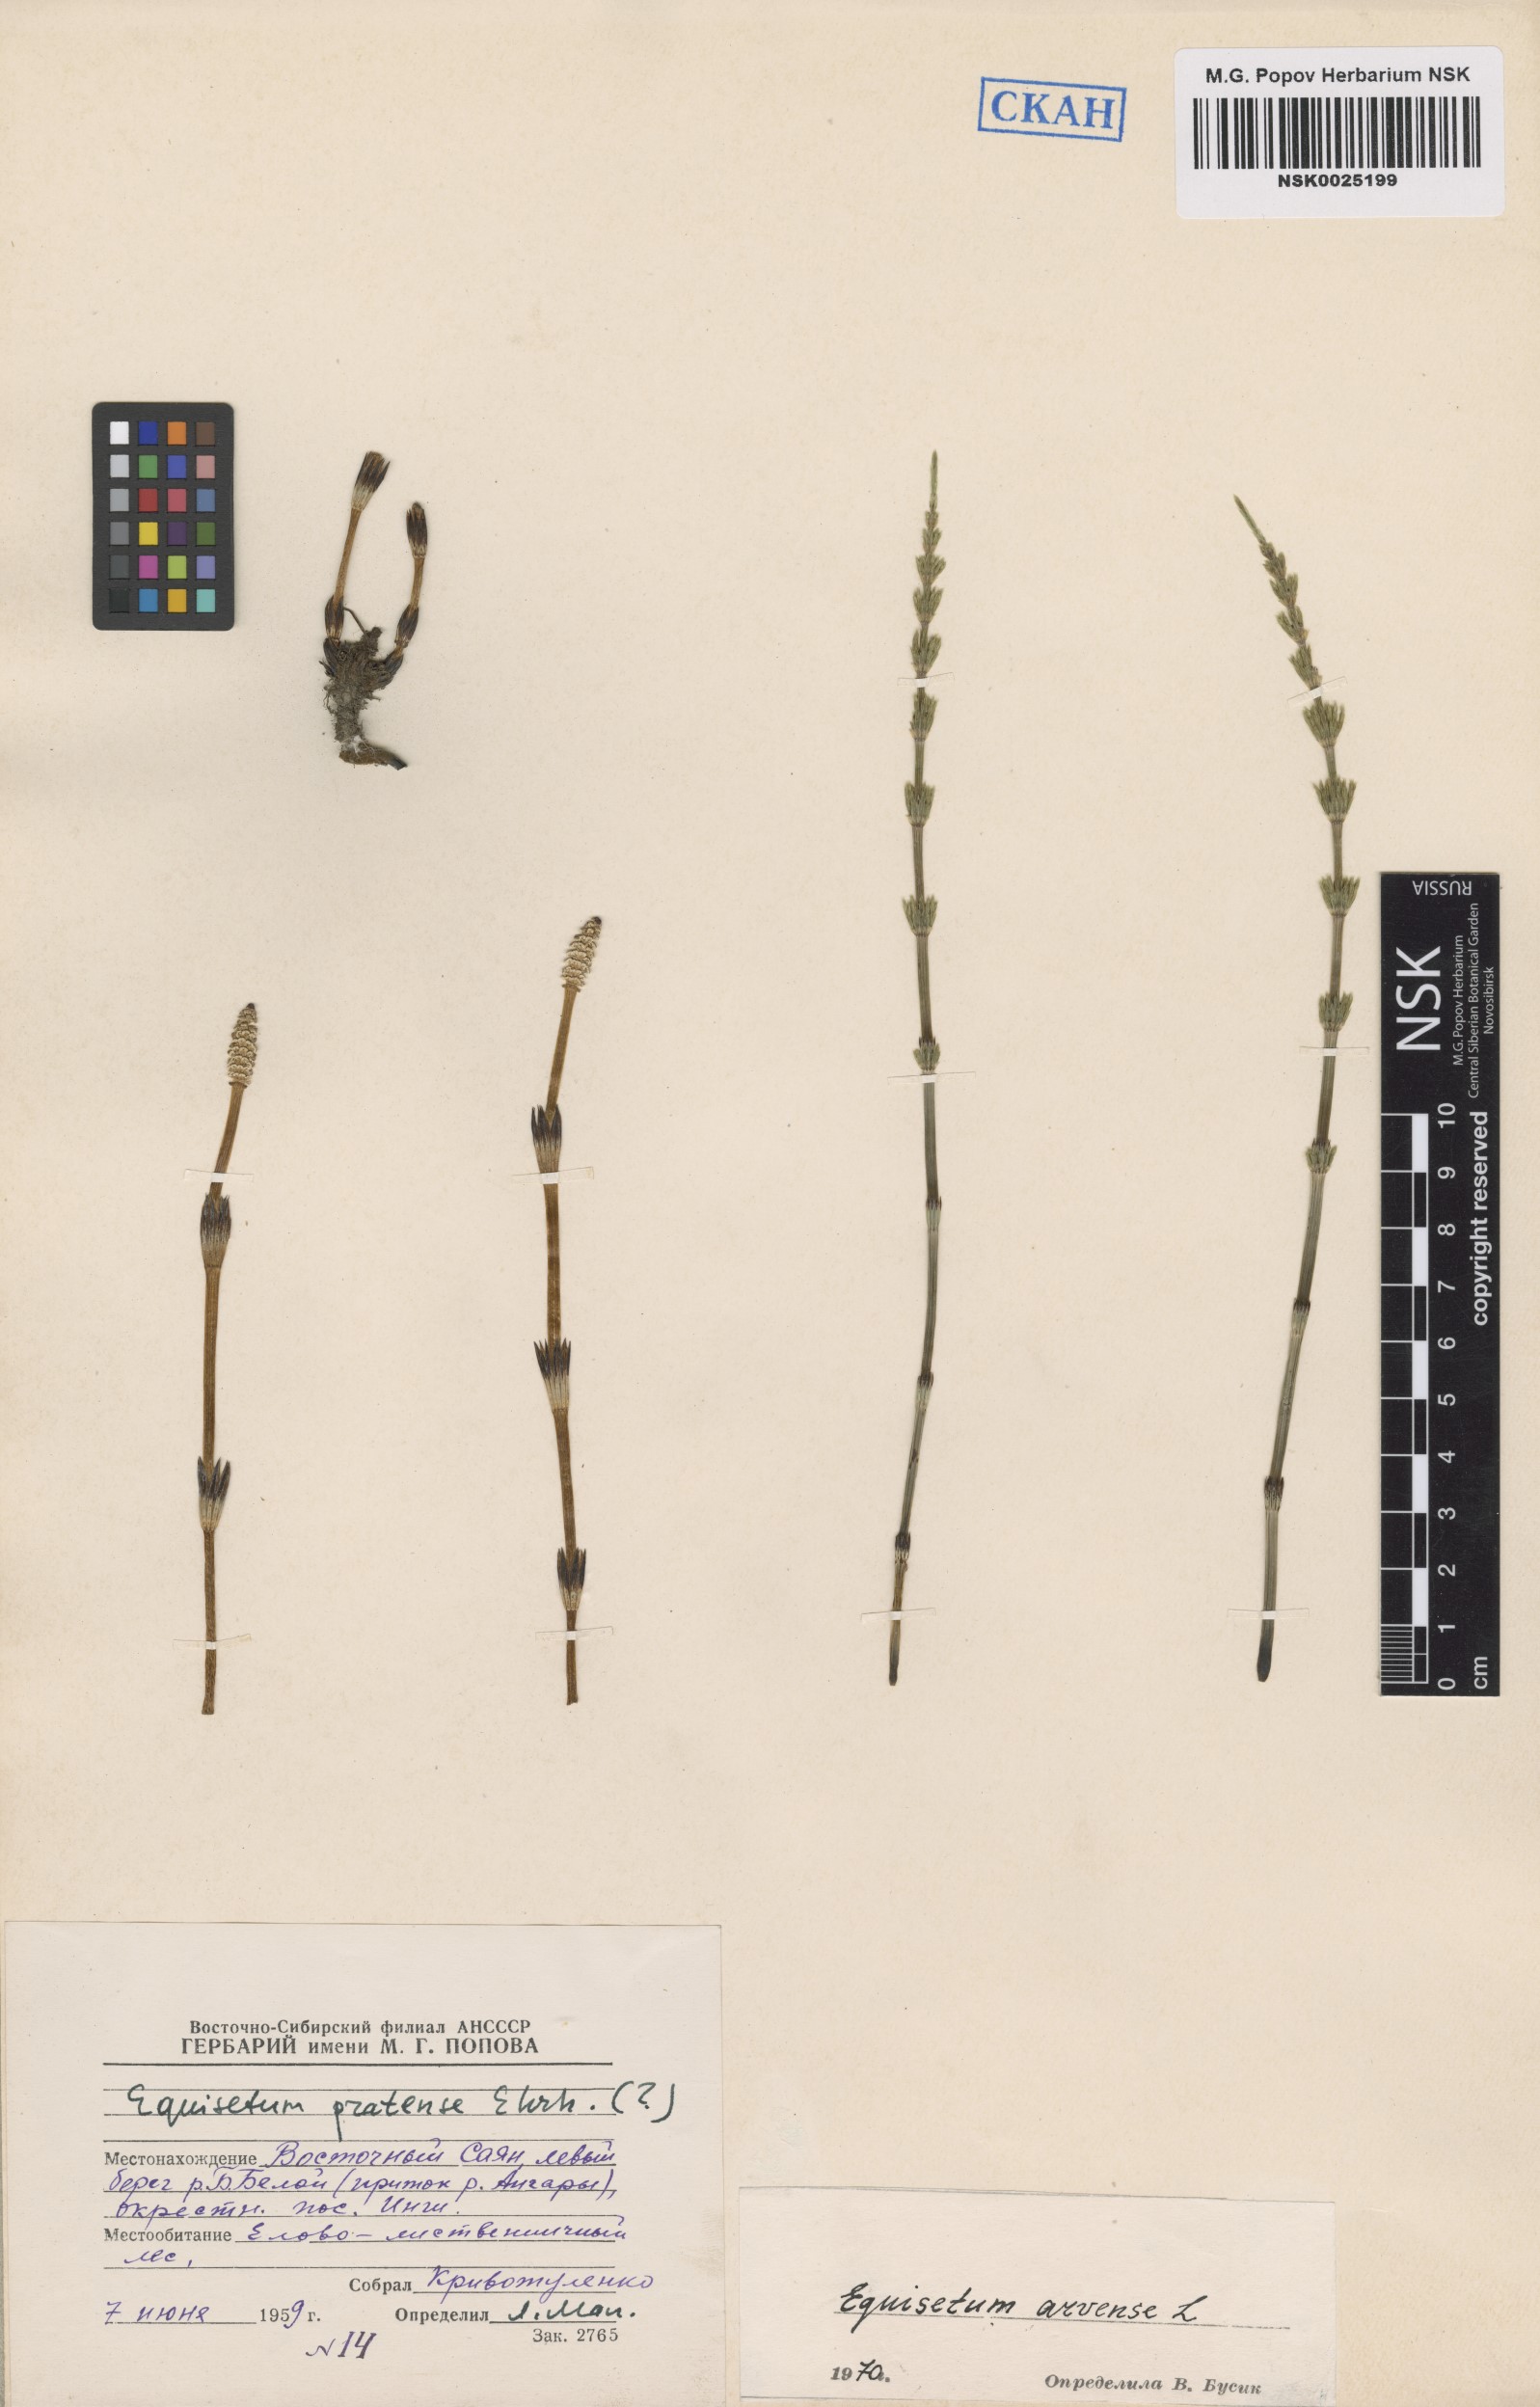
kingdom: Plantae
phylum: Tracheophyta
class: Polypodiopsida
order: Equisetales
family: Equisetaceae
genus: Equisetum
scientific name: Equisetum arvense
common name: Field horsetail
